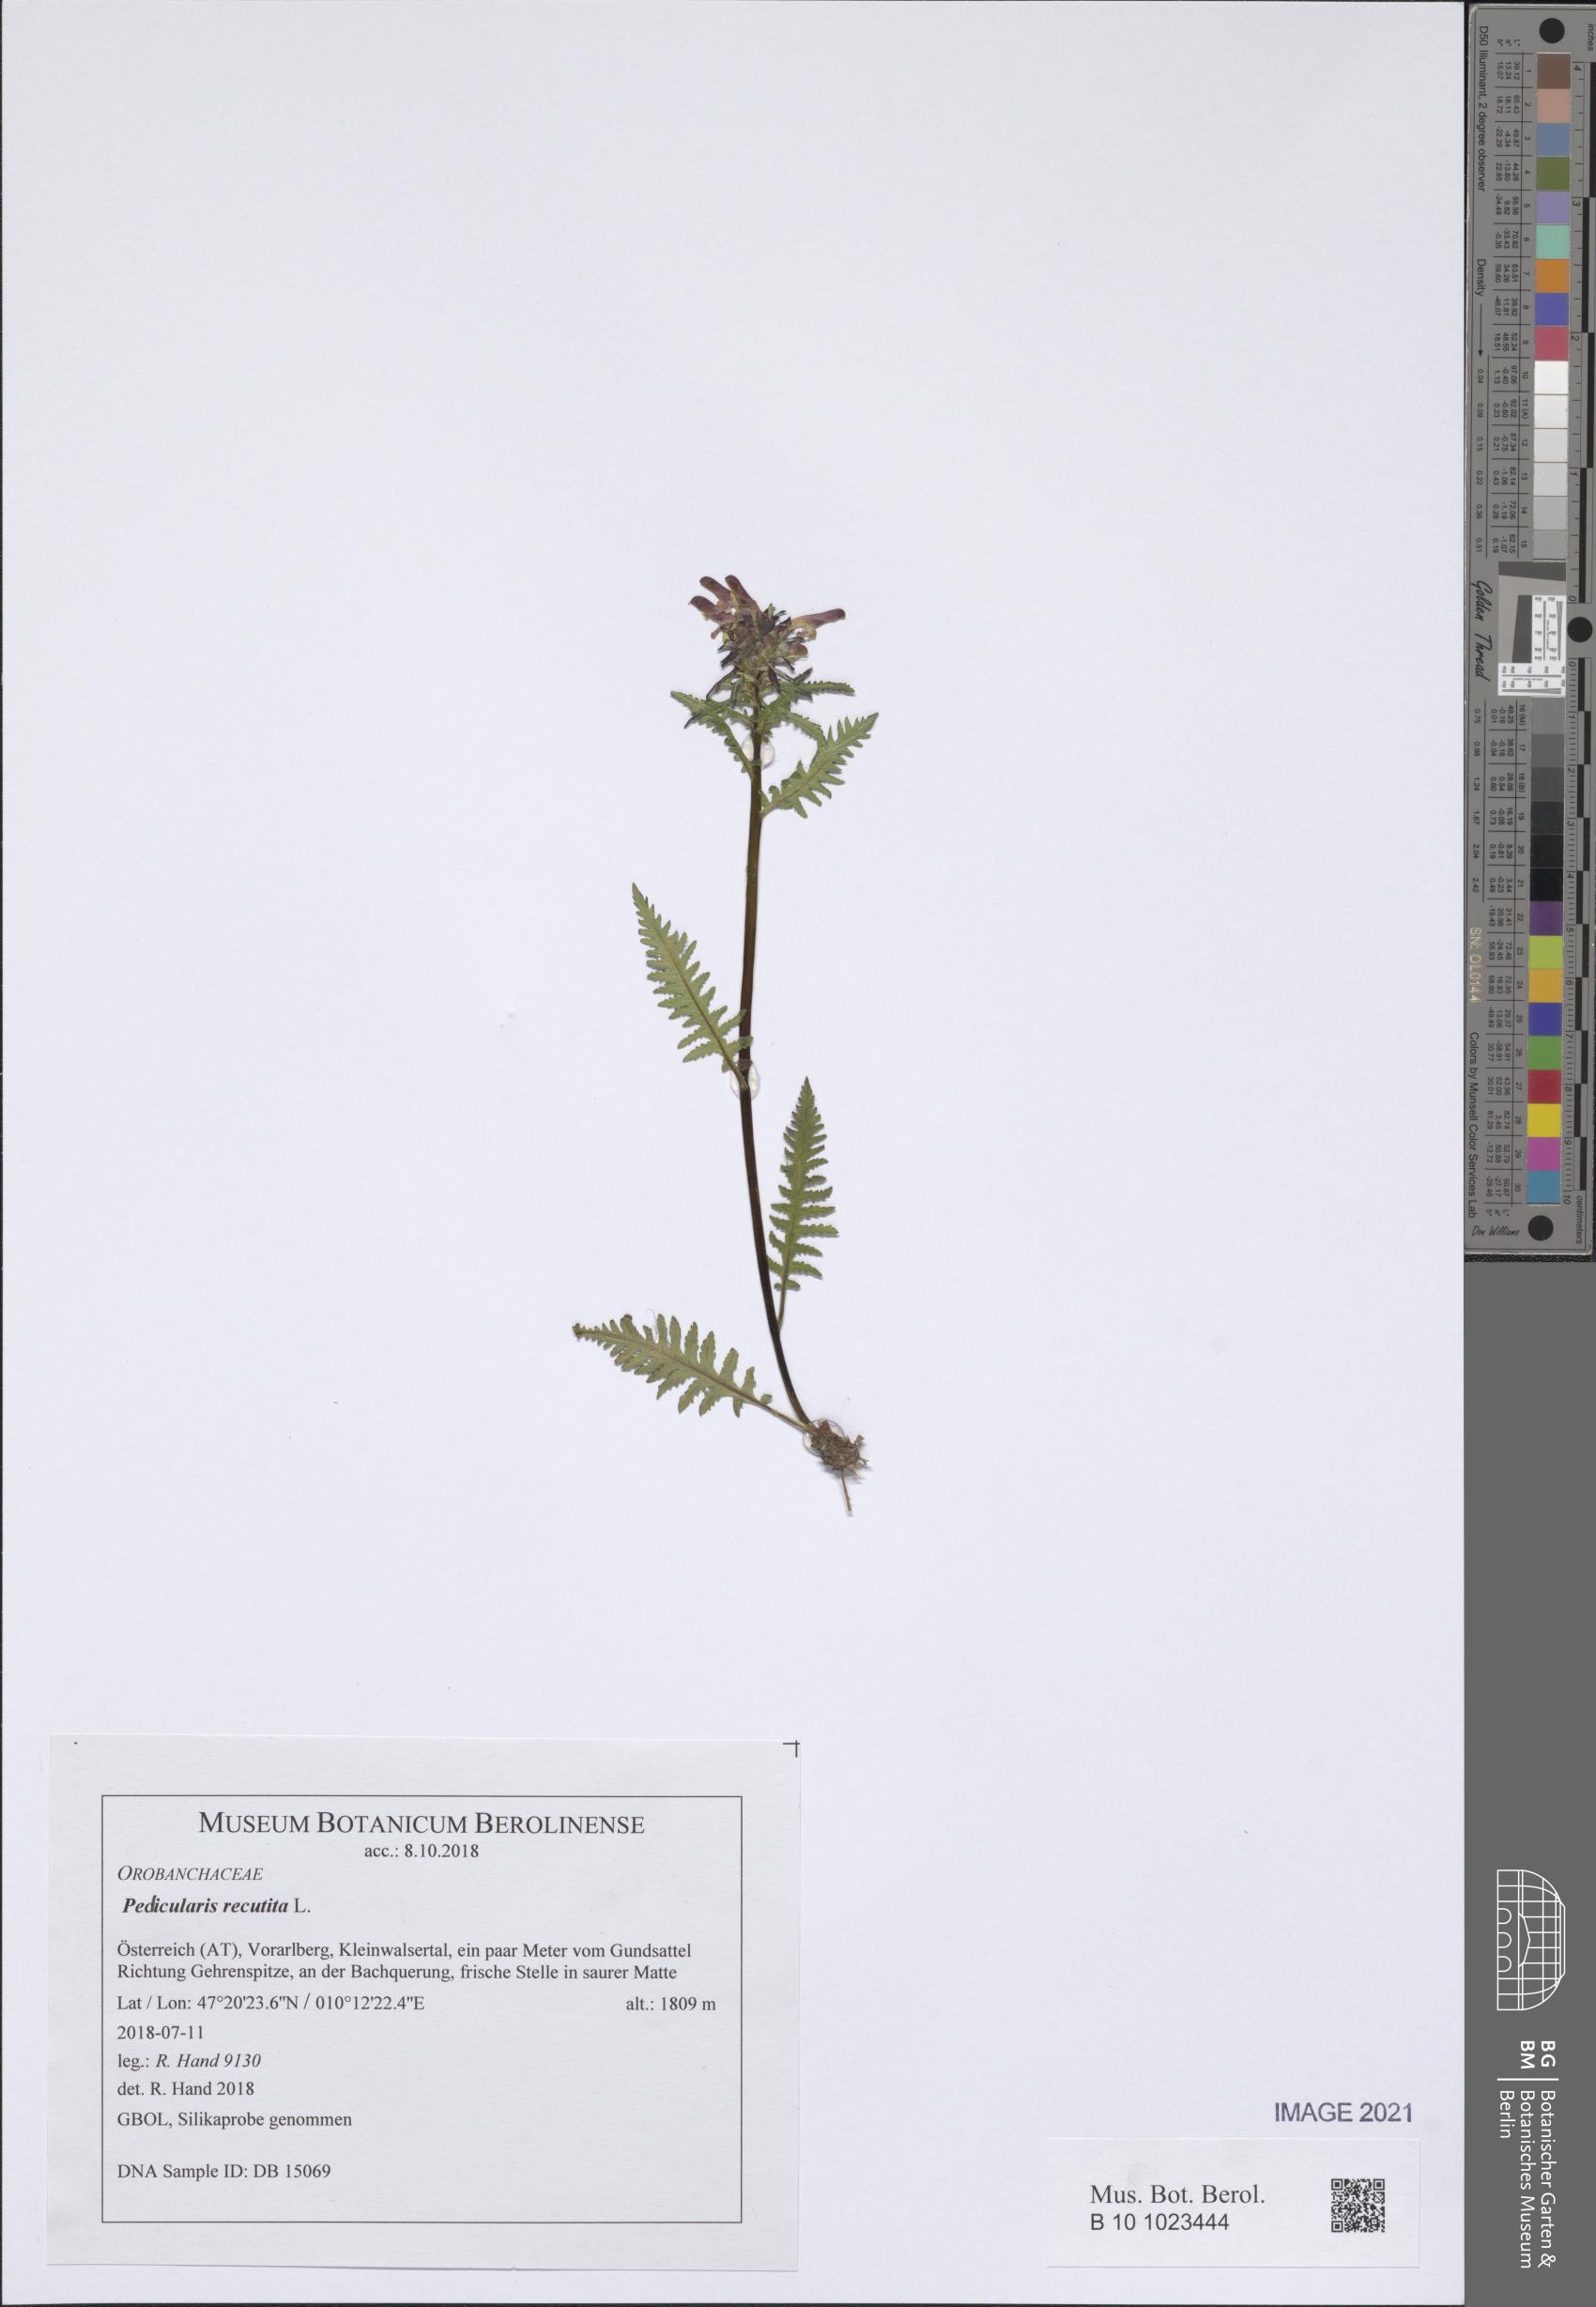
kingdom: Plantae
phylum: Tracheophyta
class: Magnoliopsida
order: Lamiales
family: Orobanchaceae
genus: Pedicularis
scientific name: Pedicularis recutita
